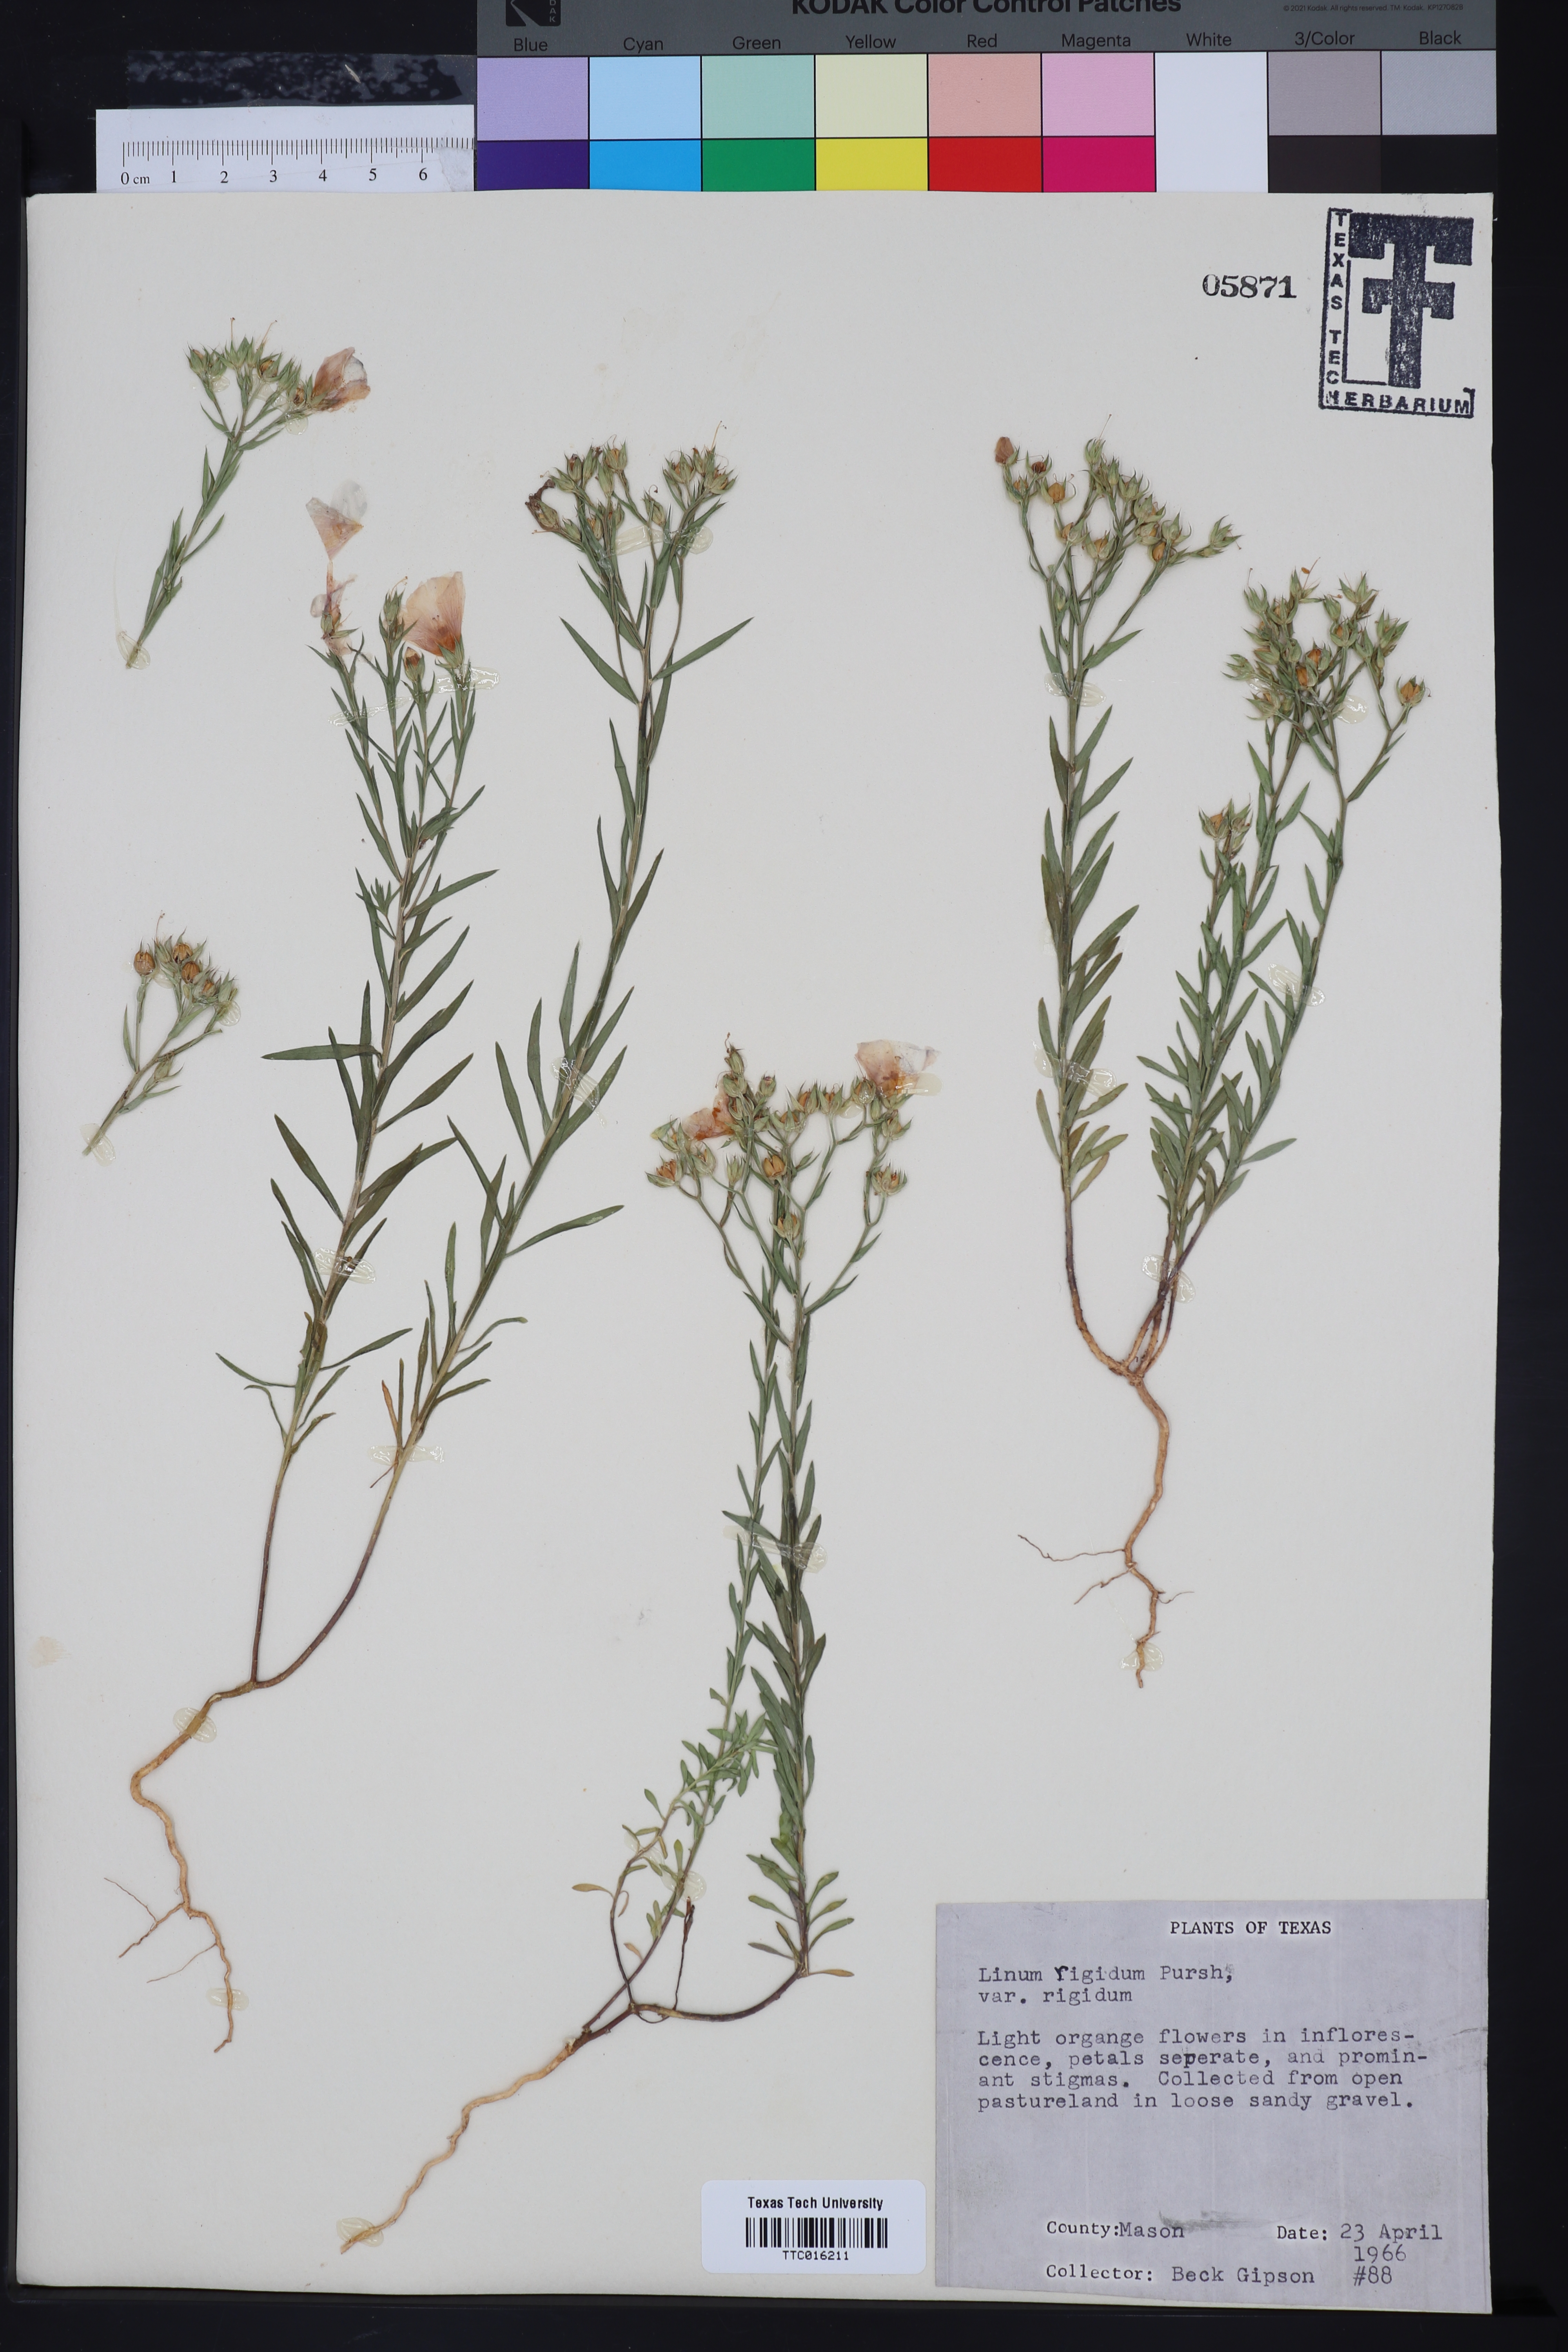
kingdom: Plantae
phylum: Tracheophyta
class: Magnoliopsida
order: Malpighiales
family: Linaceae
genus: Linum
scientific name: Linum rigidum
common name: Stiff-stem flax
